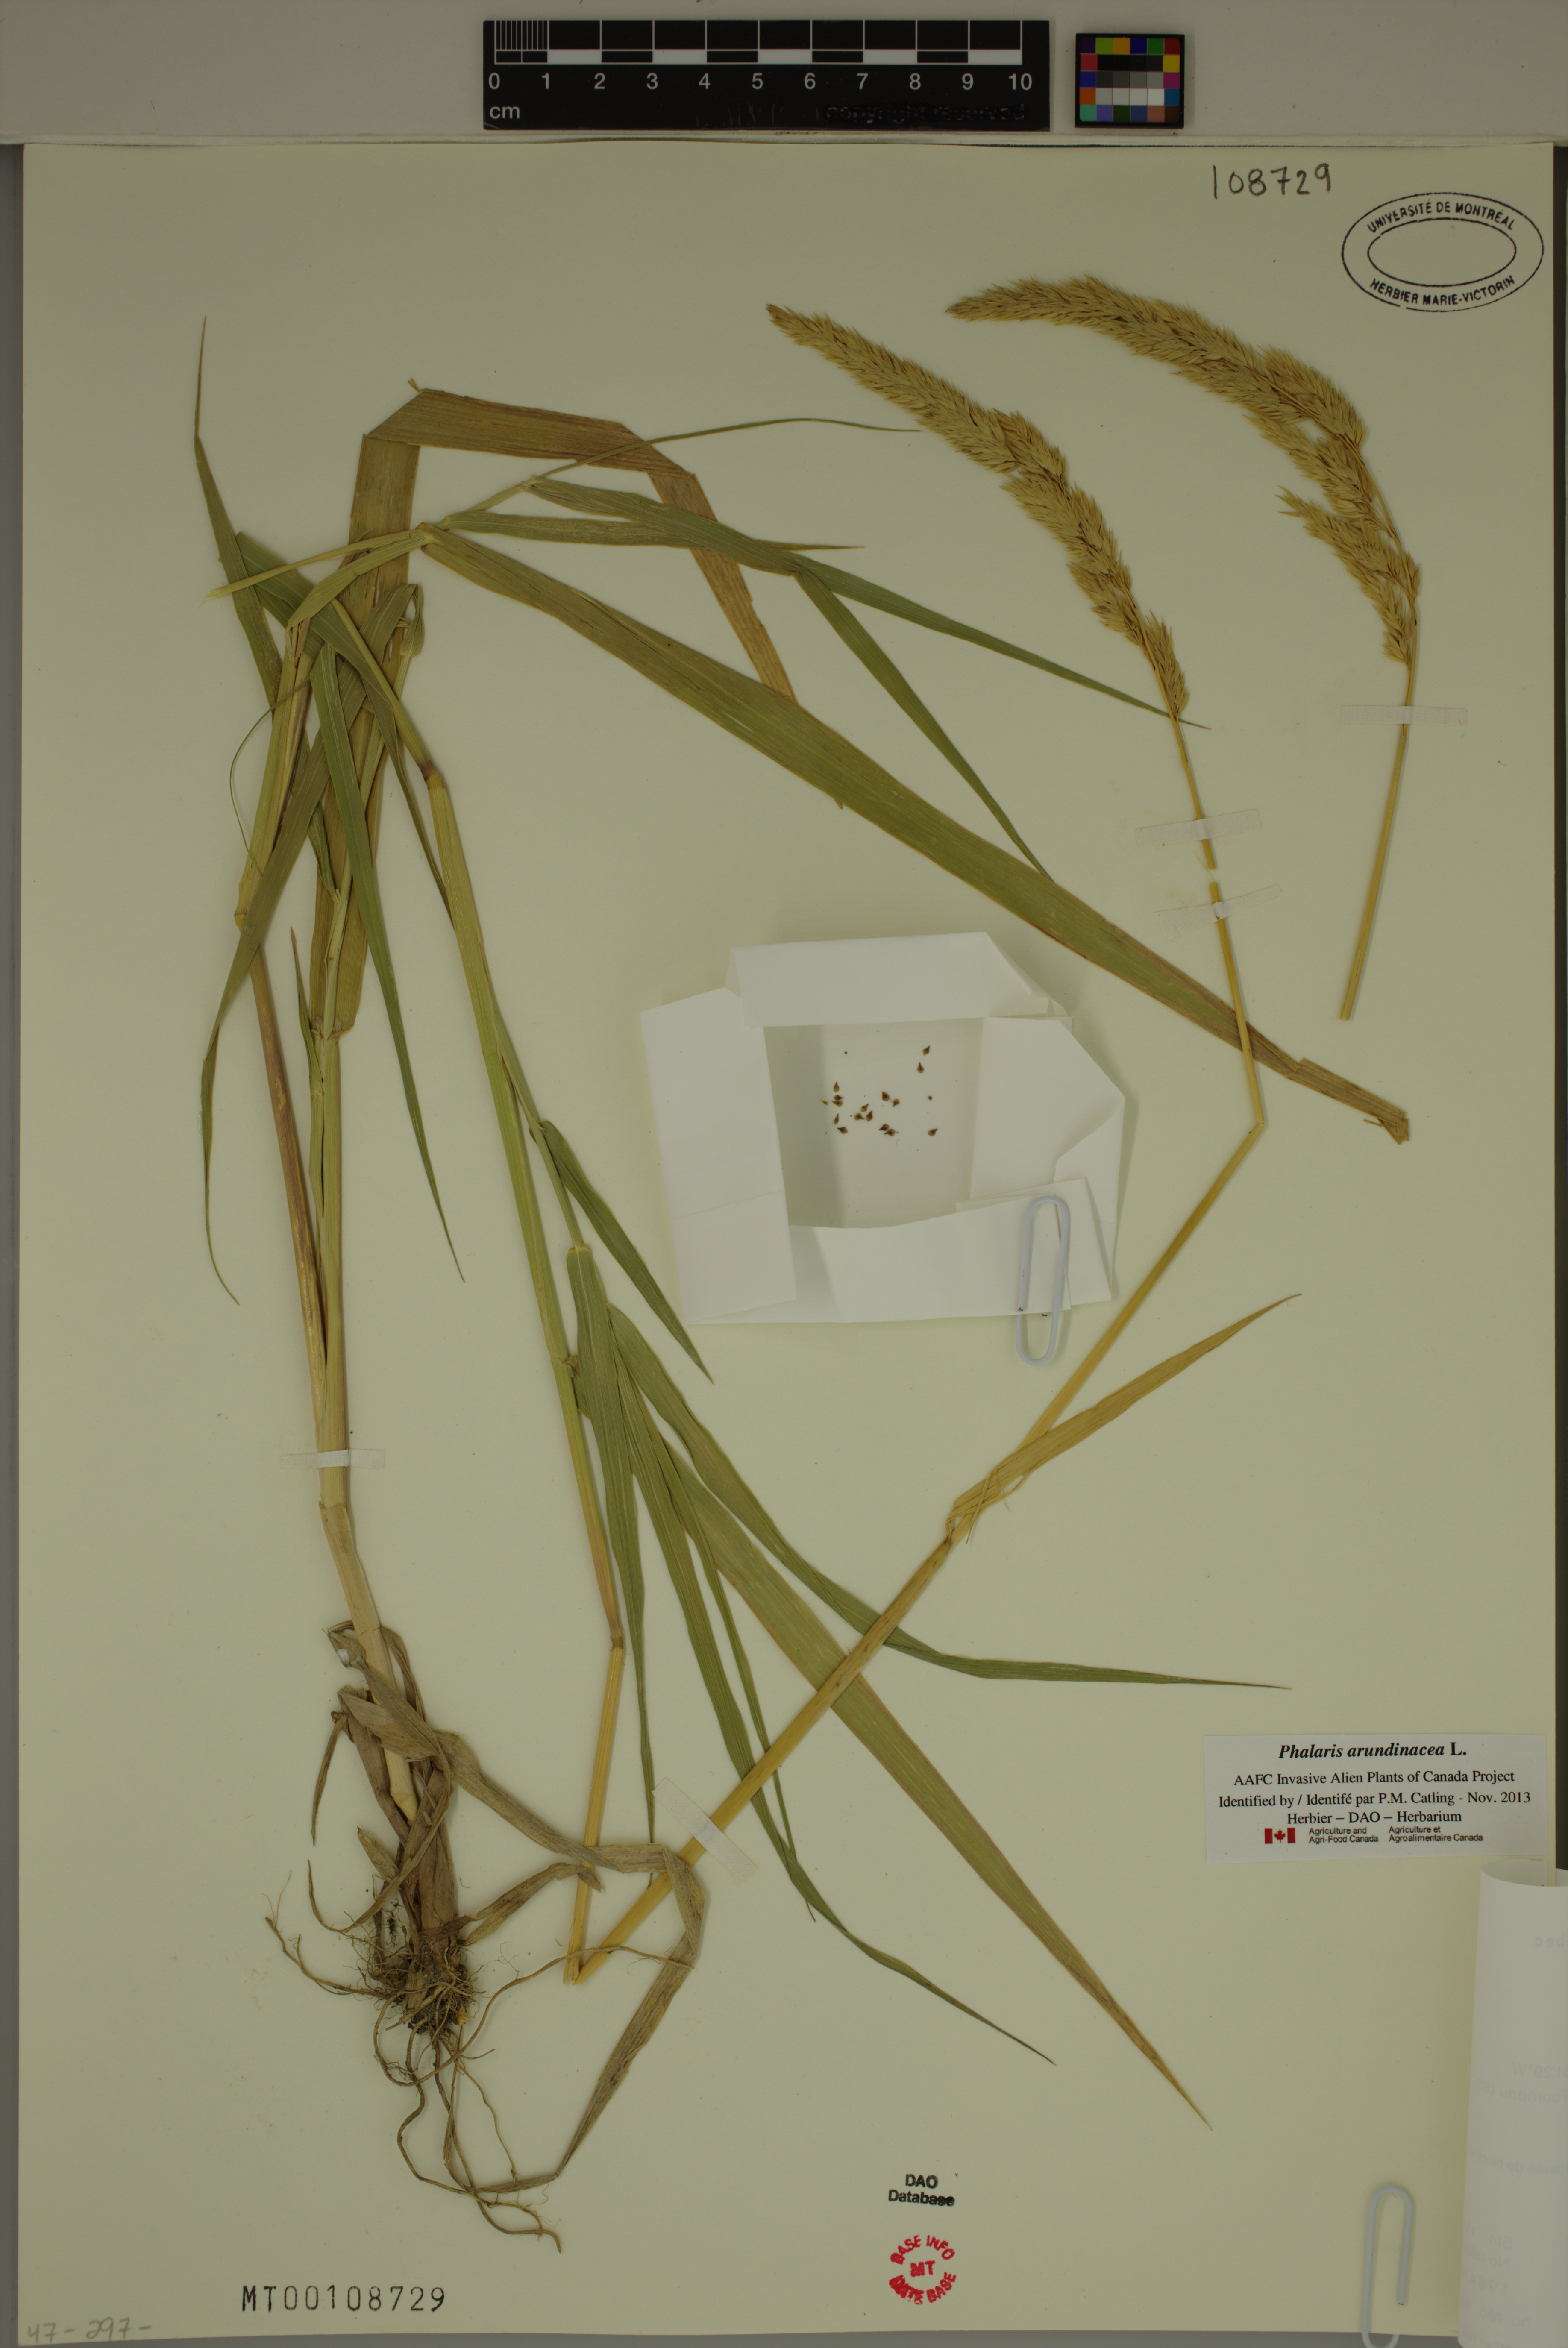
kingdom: Plantae
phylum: Tracheophyta
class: Liliopsida
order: Poales
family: Poaceae
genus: Phalaris
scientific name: Phalaris arundinacea
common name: Reed canary-grass
